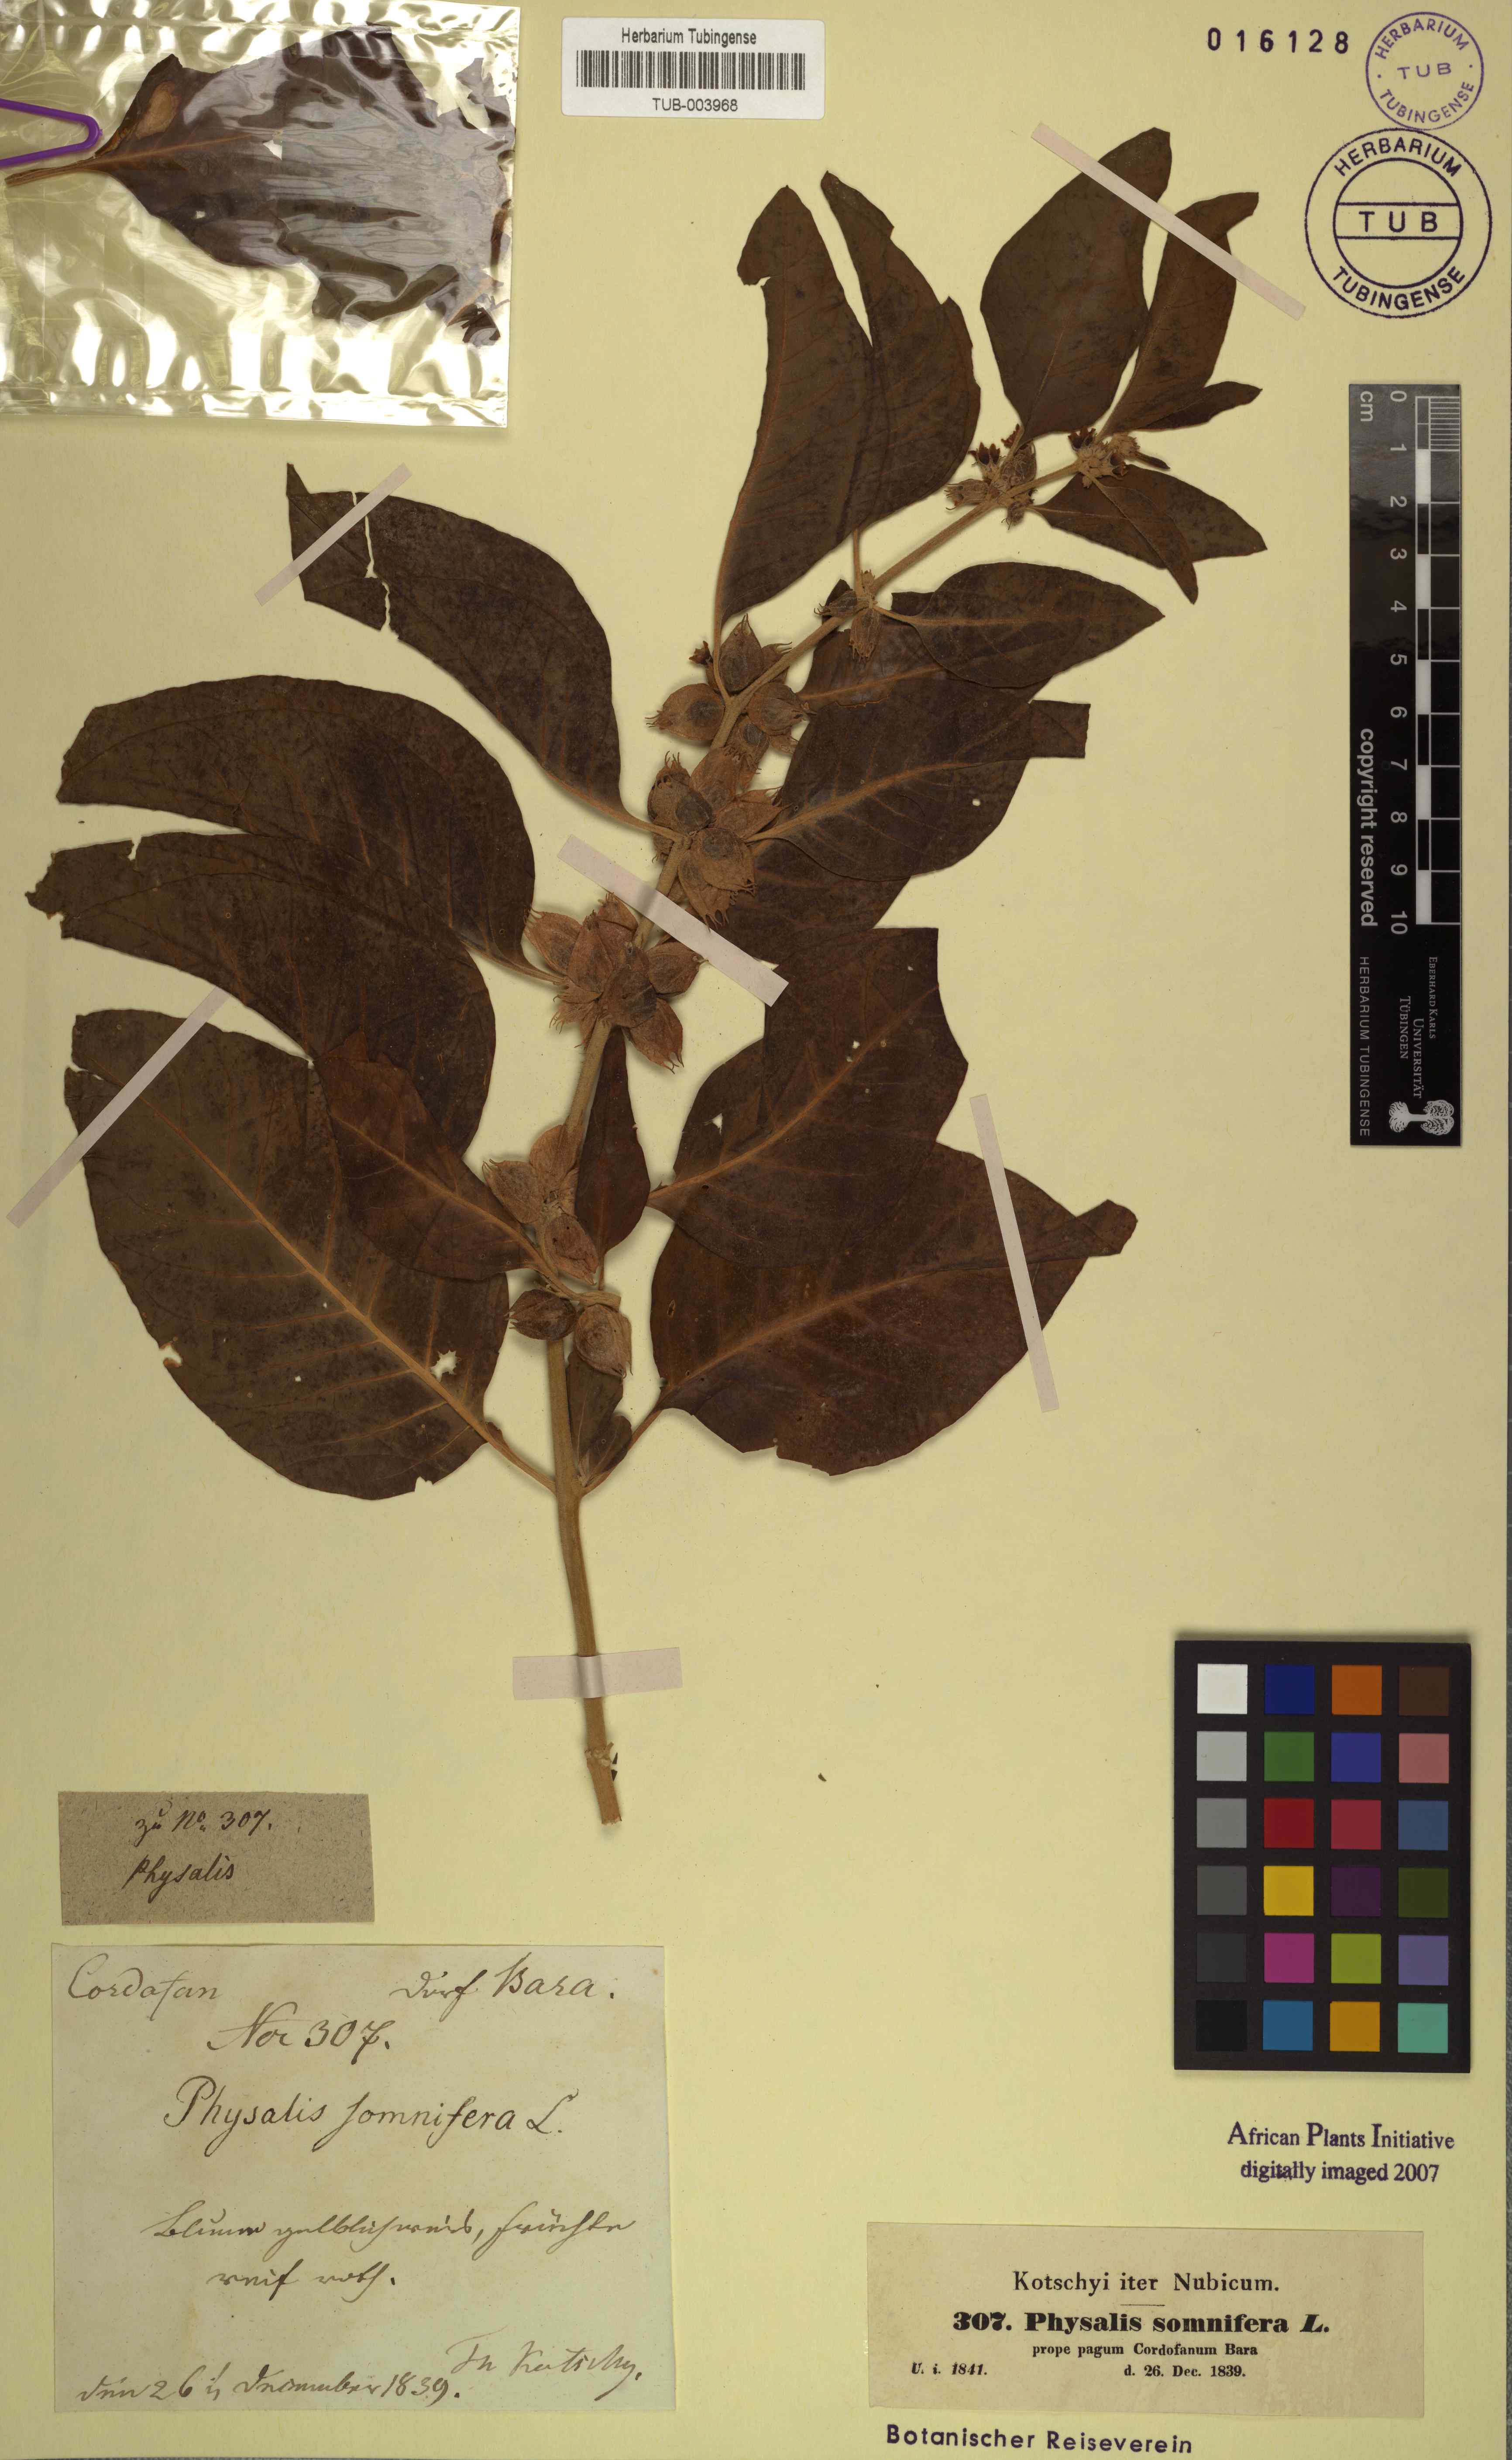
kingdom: Plantae
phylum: Tracheophyta
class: Magnoliopsida
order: Solanales
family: Solanaceae
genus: Withania
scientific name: Withania somnifera
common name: Winter-cherry
